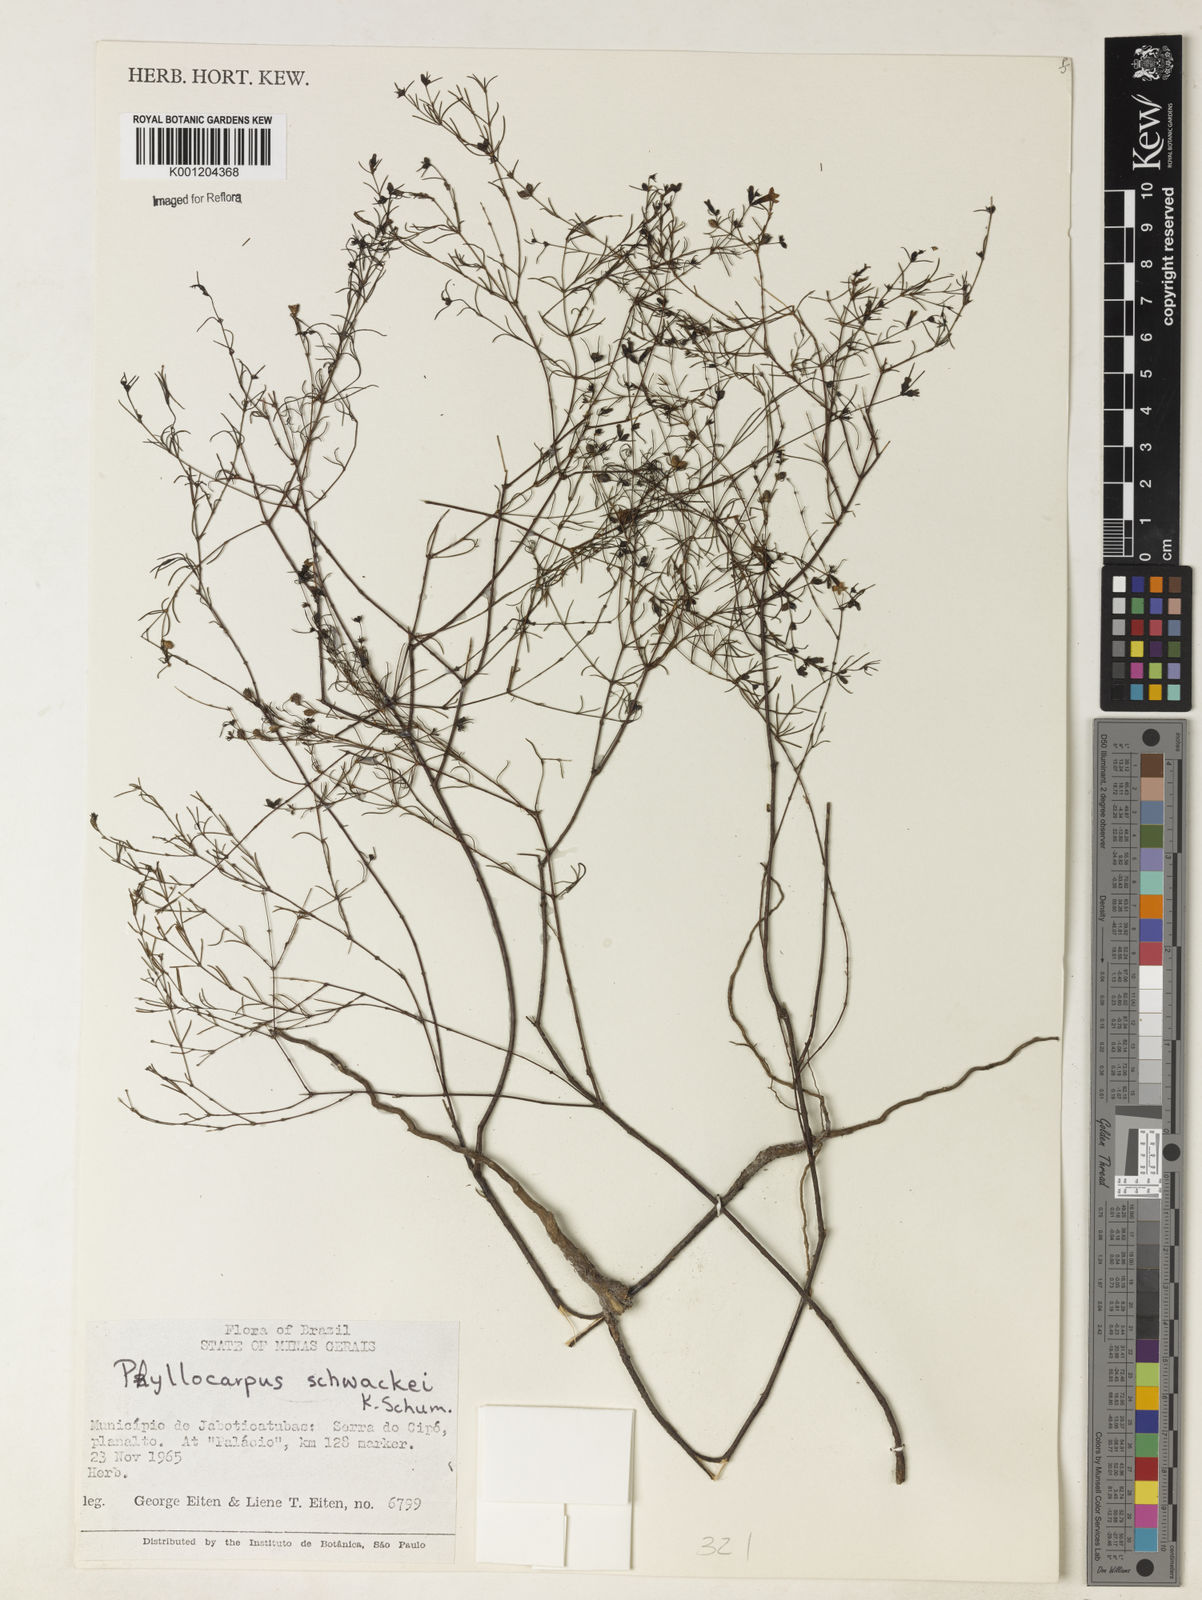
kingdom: Plantae
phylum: Tracheophyta
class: Magnoliopsida
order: Gentianales
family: Rubiaceae
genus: Psyllocarpus
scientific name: Psyllocarpus schwackei
